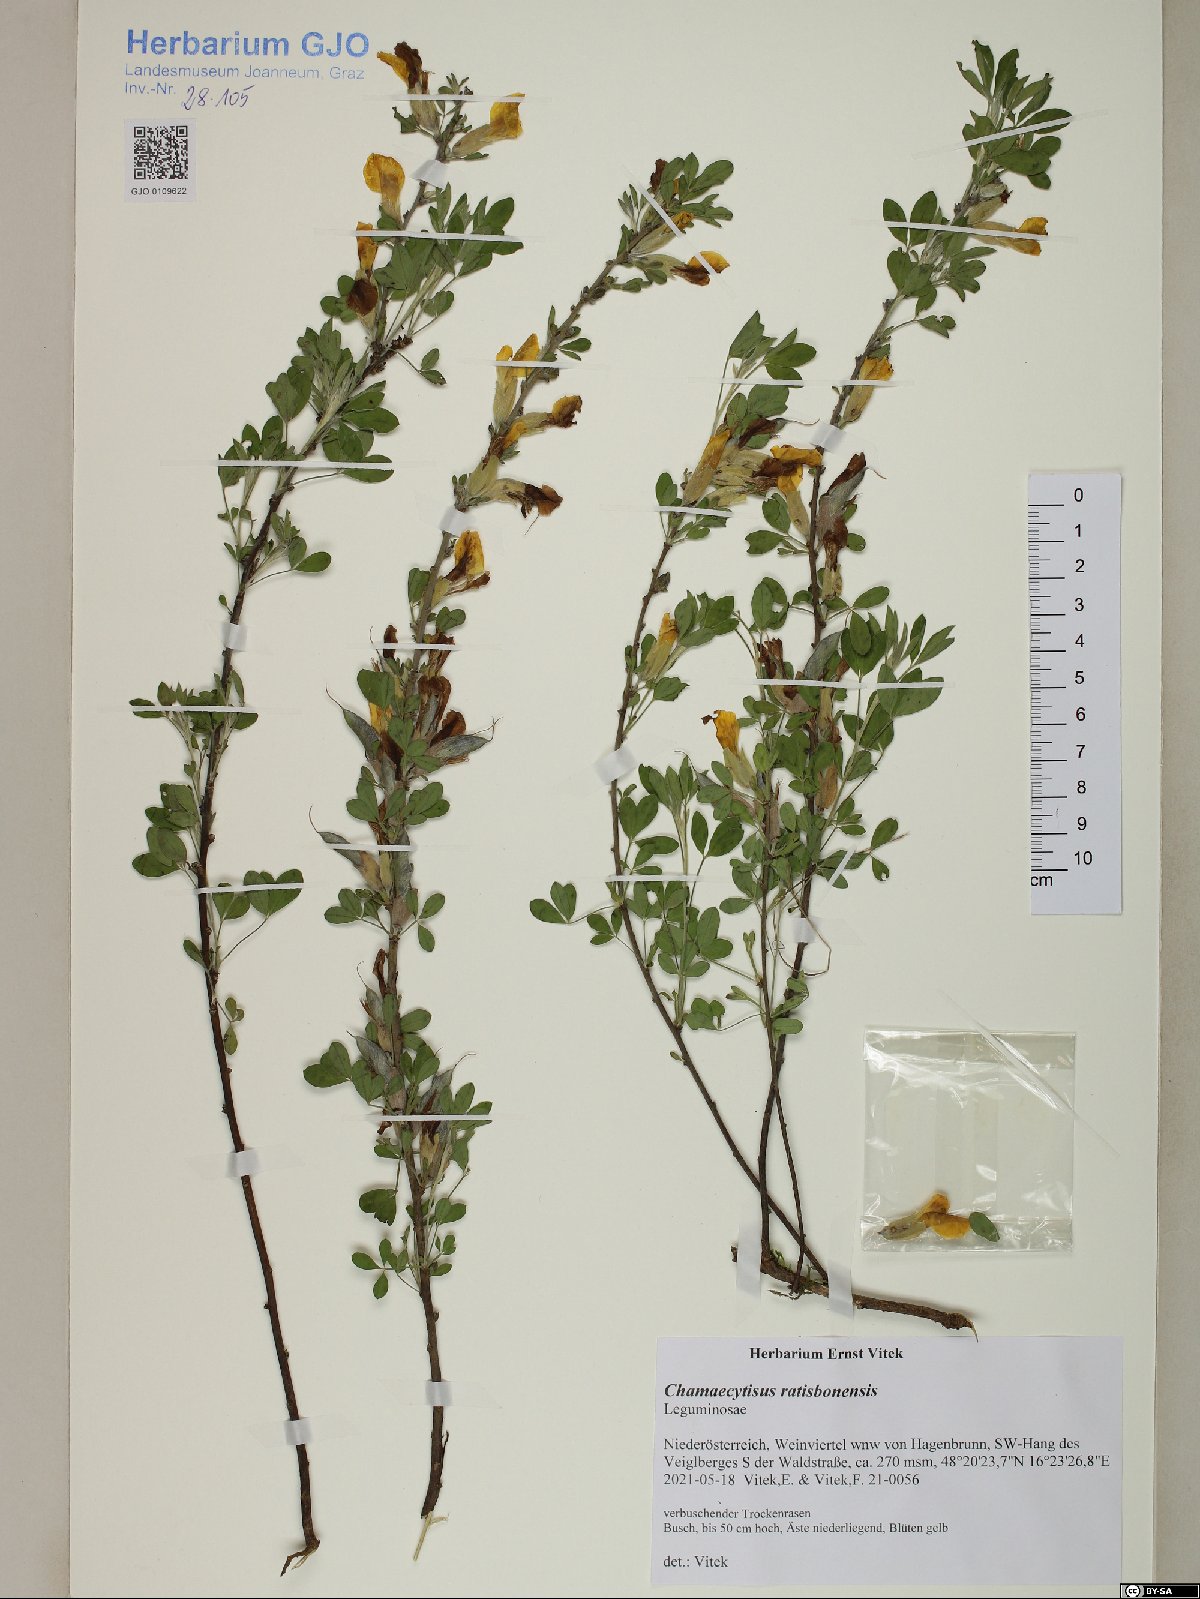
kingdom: Plantae
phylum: Tracheophyta
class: Magnoliopsida
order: Fabales
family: Fabaceae
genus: Chamaecytisus
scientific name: Chamaecytisus ratisbonensis
